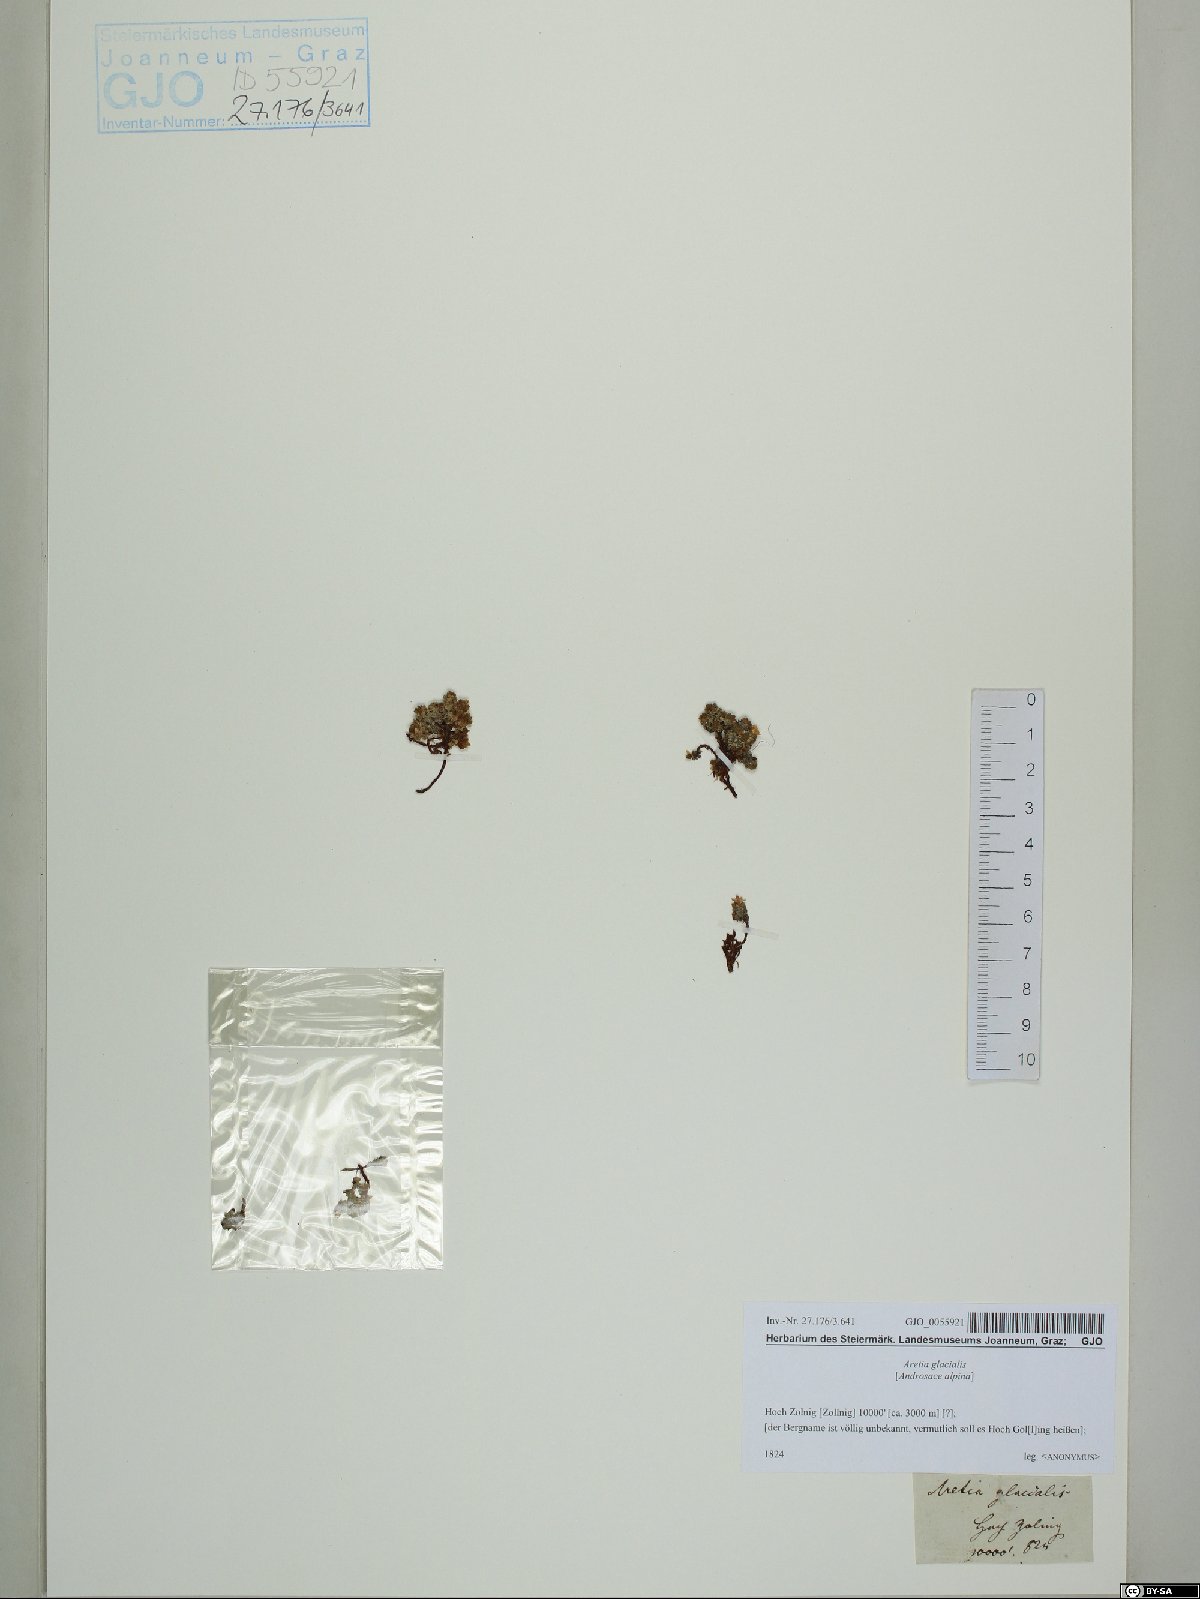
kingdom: Plantae
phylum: Tracheophyta
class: Magnoliopsida
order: Ericales
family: Primulaceae
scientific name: Primulaceae
